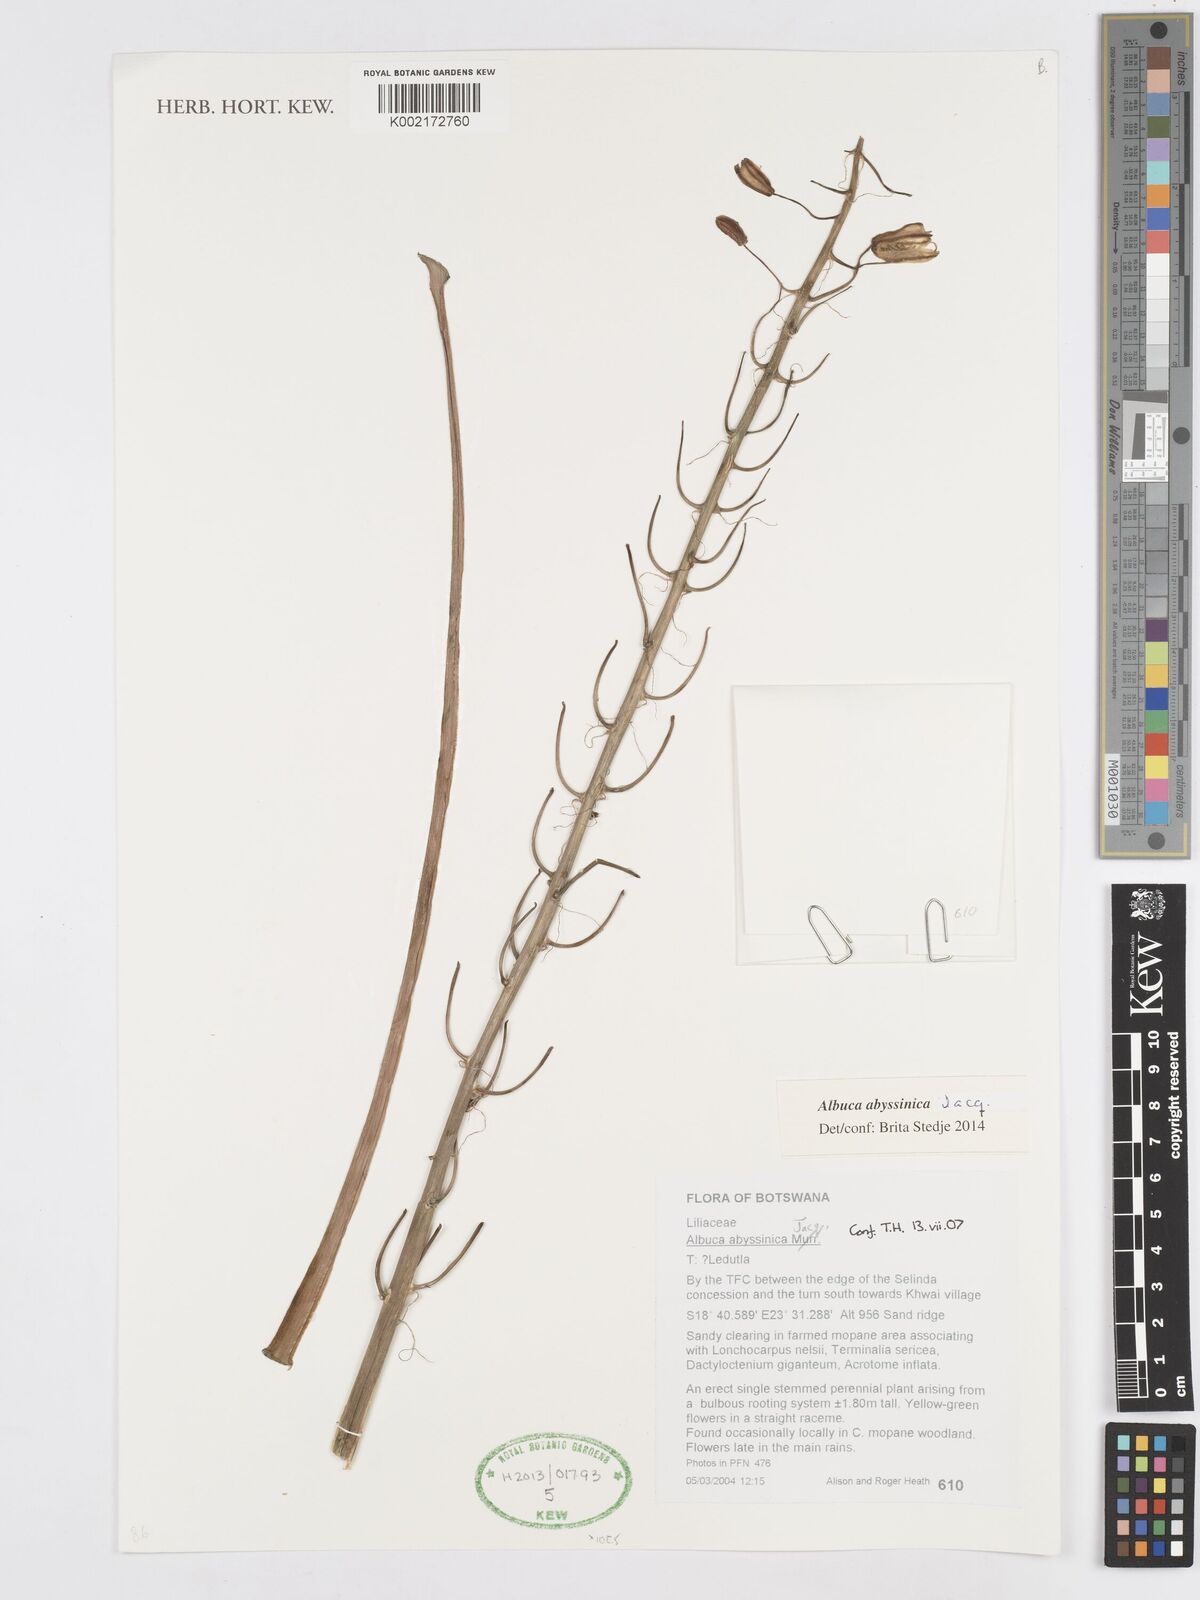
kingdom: Plantae
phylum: Tracheophyta
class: Liliopsida
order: Asparagales
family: Asparagaceae
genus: Albuca
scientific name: Albuca abyssinica
